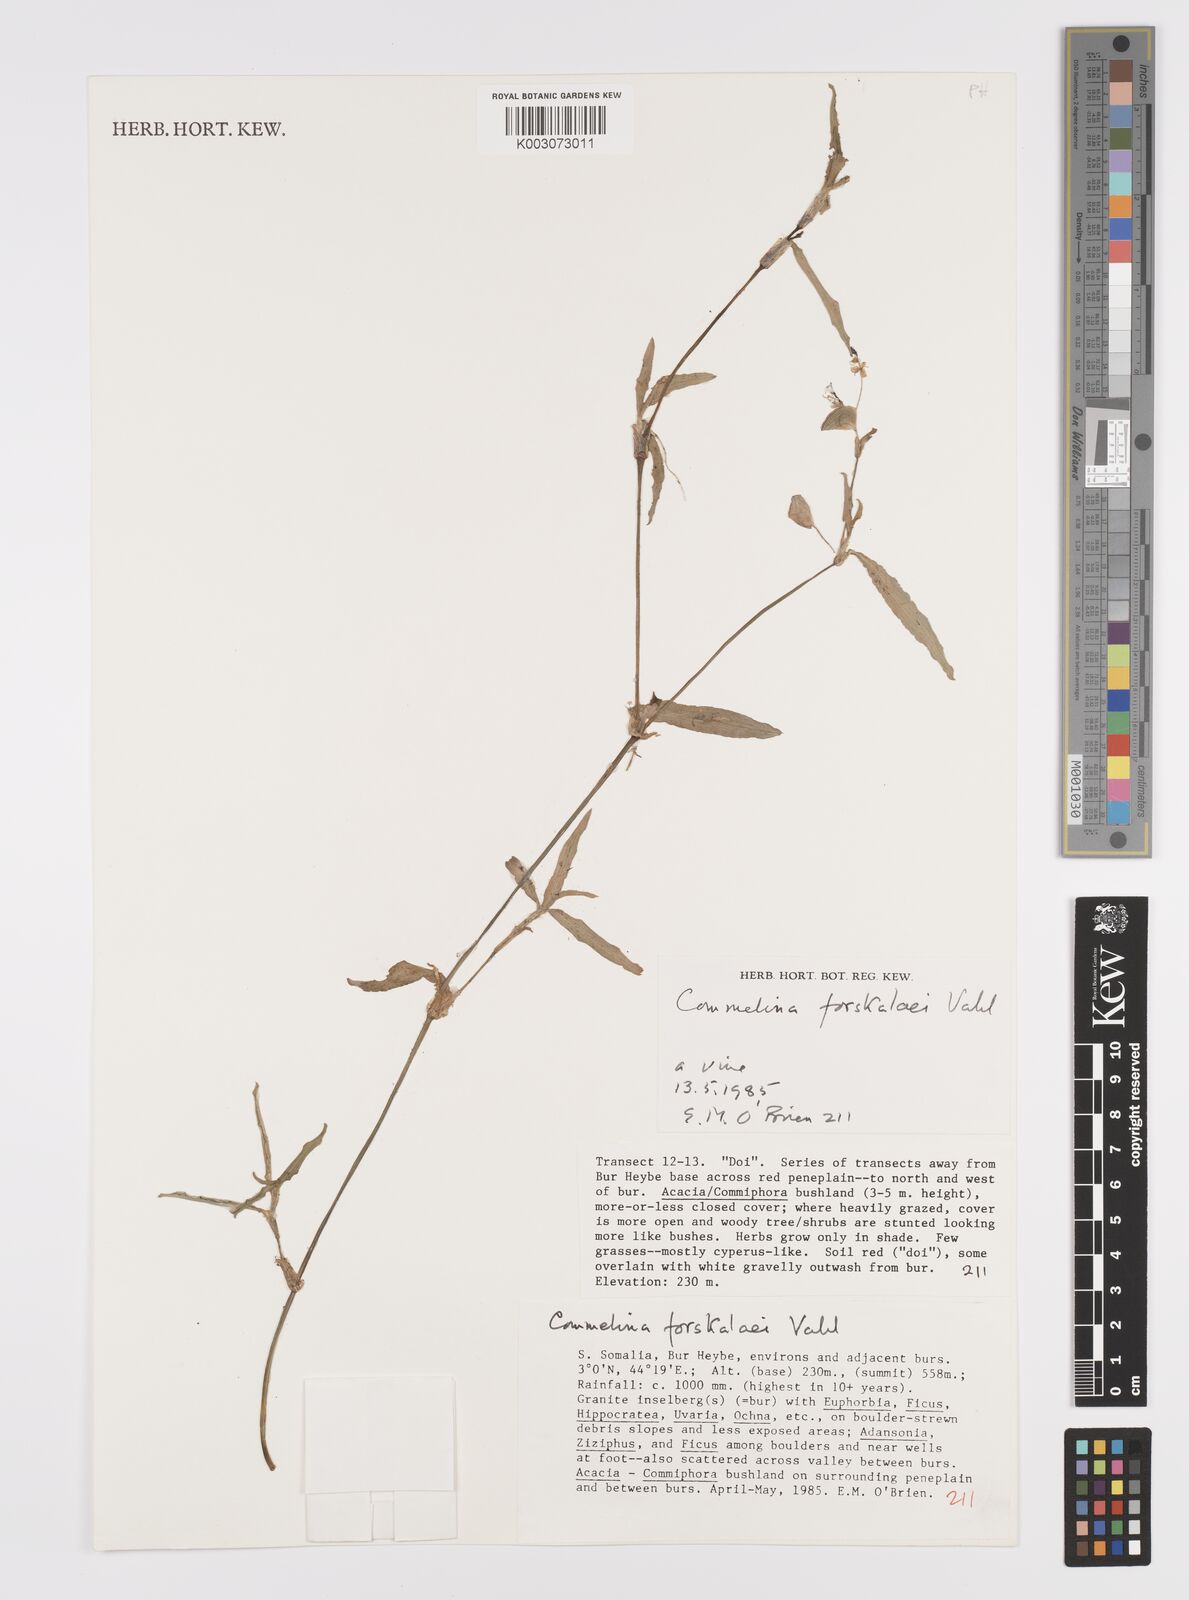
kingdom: Plantae
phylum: Tracheophyta
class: Liliopsida
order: Commelinales
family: Commelinaceae
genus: Commelina
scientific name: Commelina forskaolii
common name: Rat's ear
